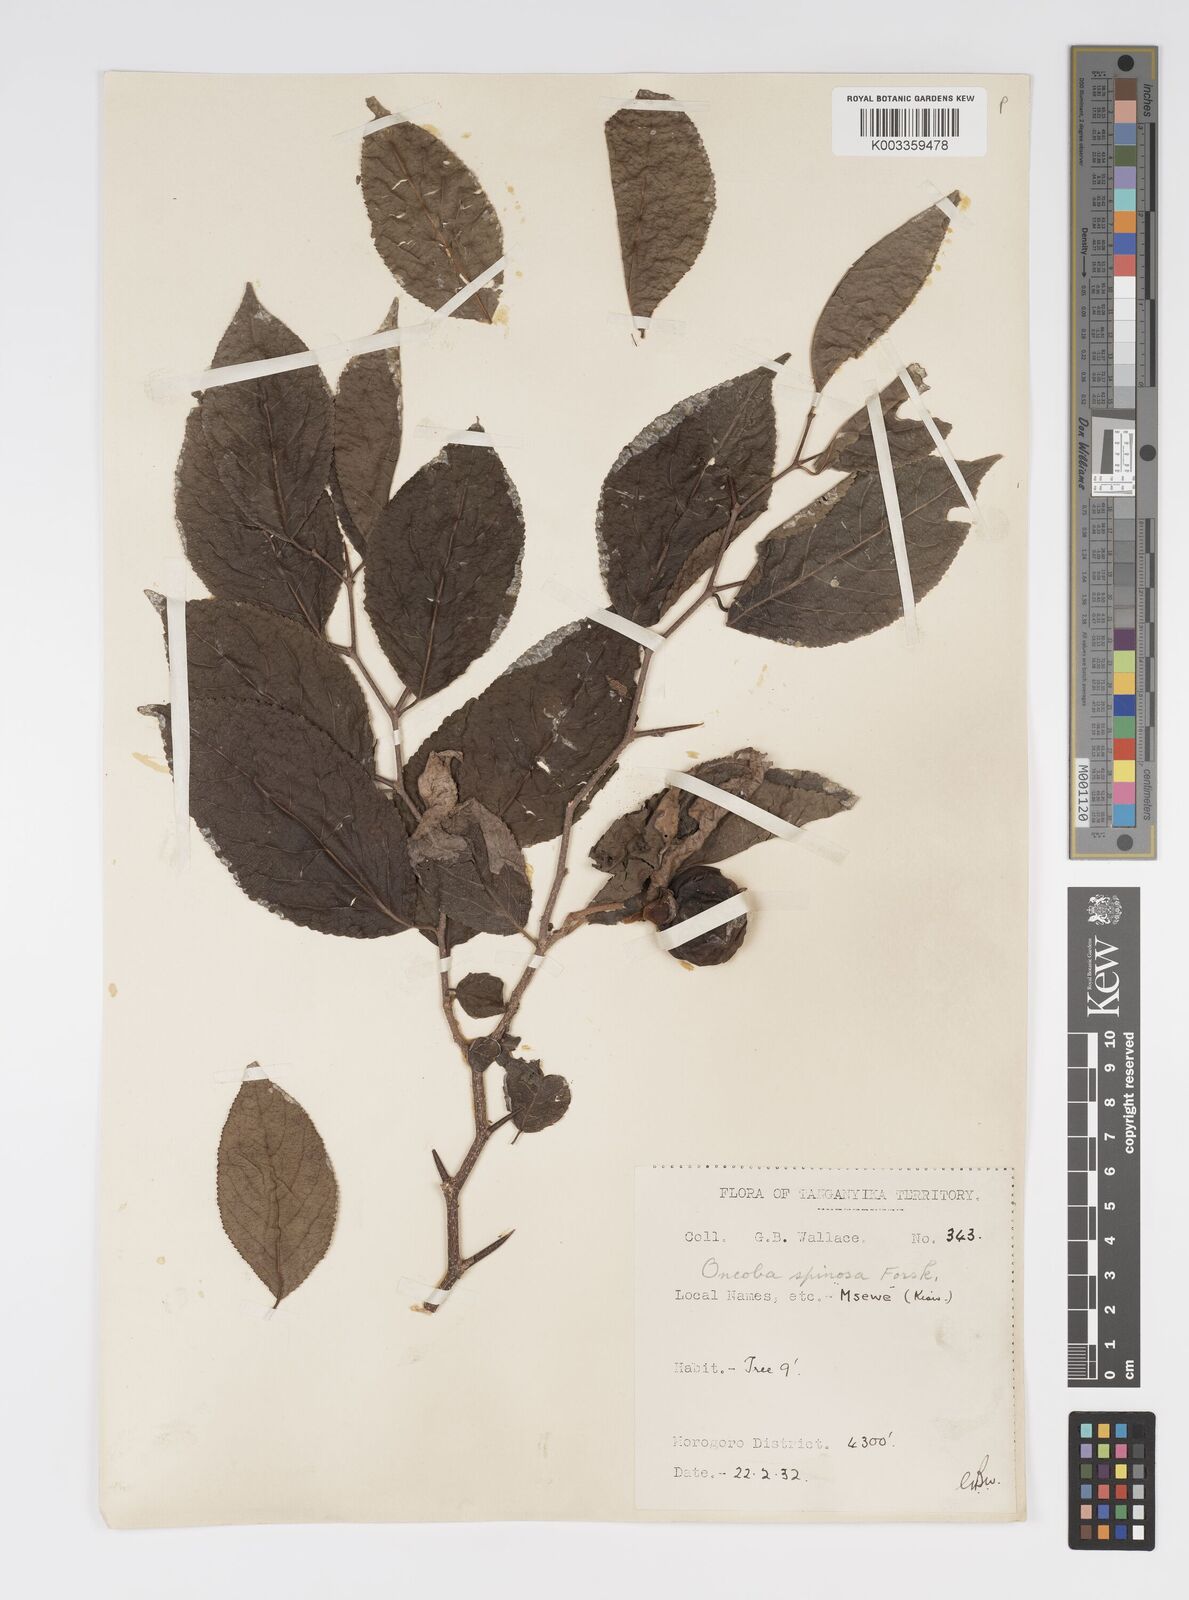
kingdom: Plantae
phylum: Tracheophyta
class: Magnoliopsida
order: Malpighiales
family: Salicaceae
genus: Oncoba
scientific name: Oncoba spinosa
